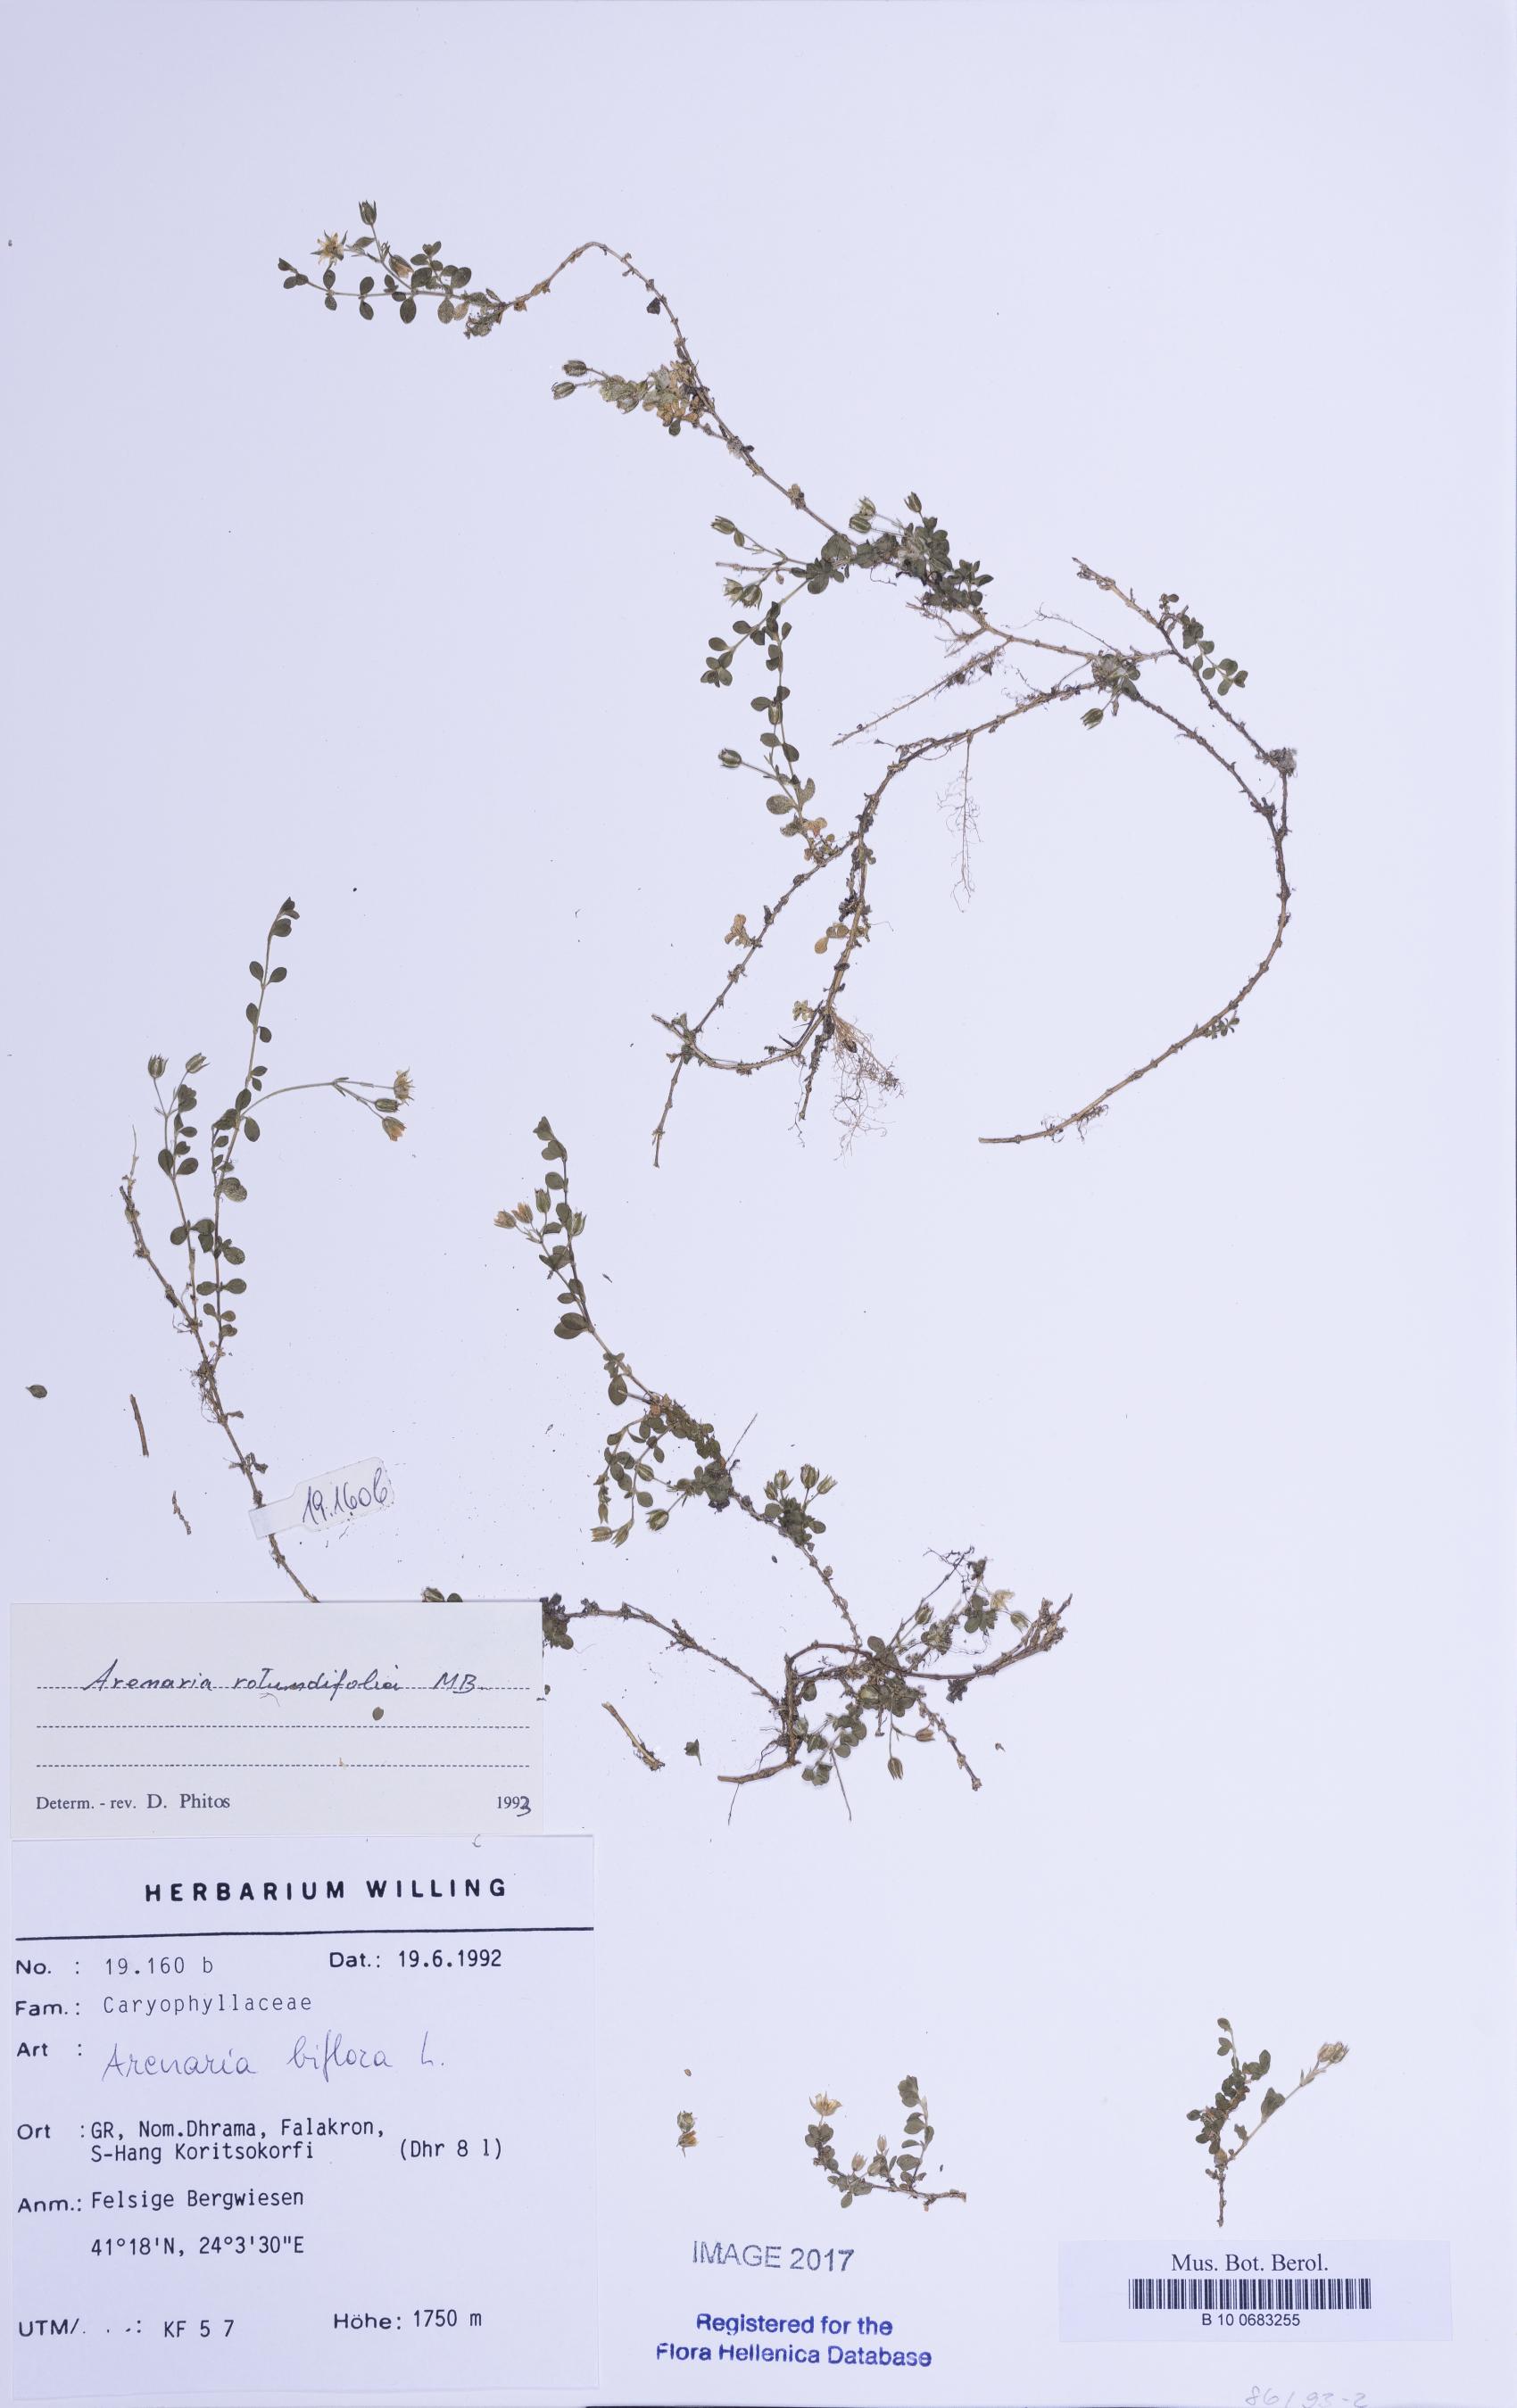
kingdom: Plantae
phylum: Tracheophyta
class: Magnoliopsida
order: Caryophyllales
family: Caryophyllaceae
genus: Arenaria
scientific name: Arenaria rotundifolia
